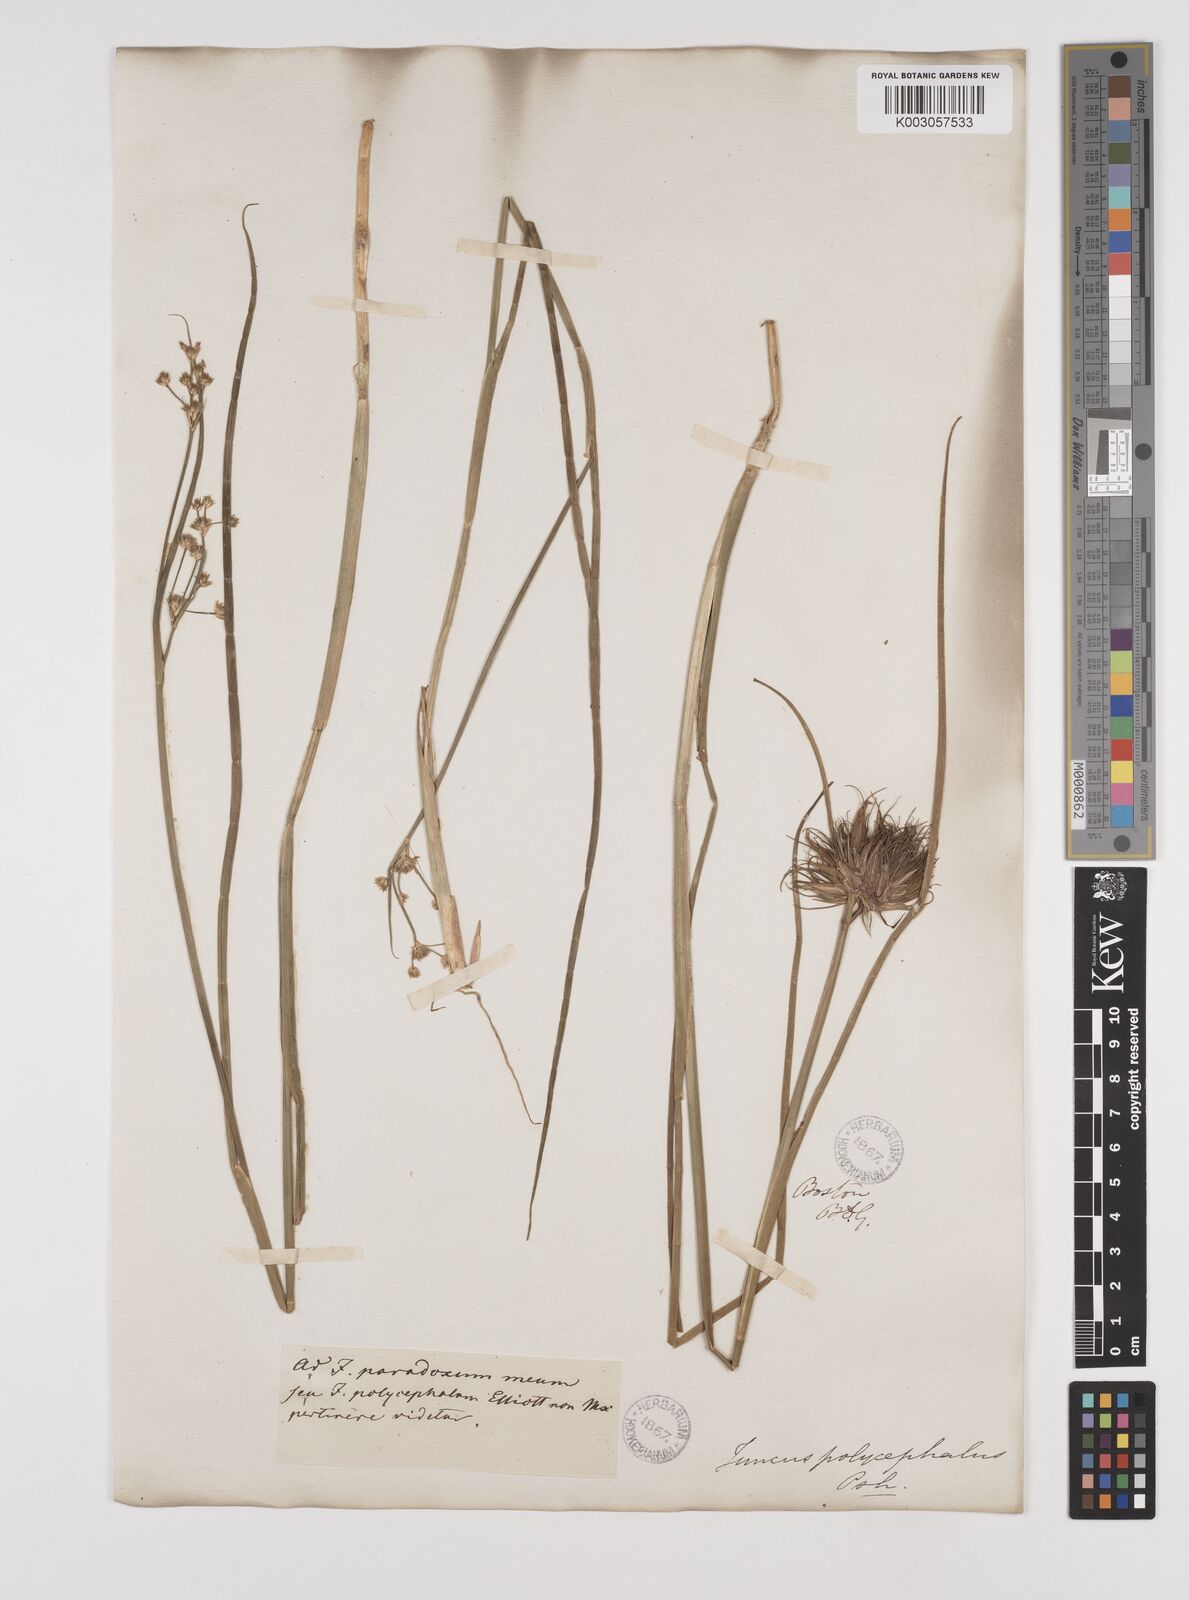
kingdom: Plantae
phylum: Tracheophyta
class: Liliopsida
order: Poales
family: Juncaceae
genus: Juncus
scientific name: Juncus acuminatus
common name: Knotty-leaved rush
